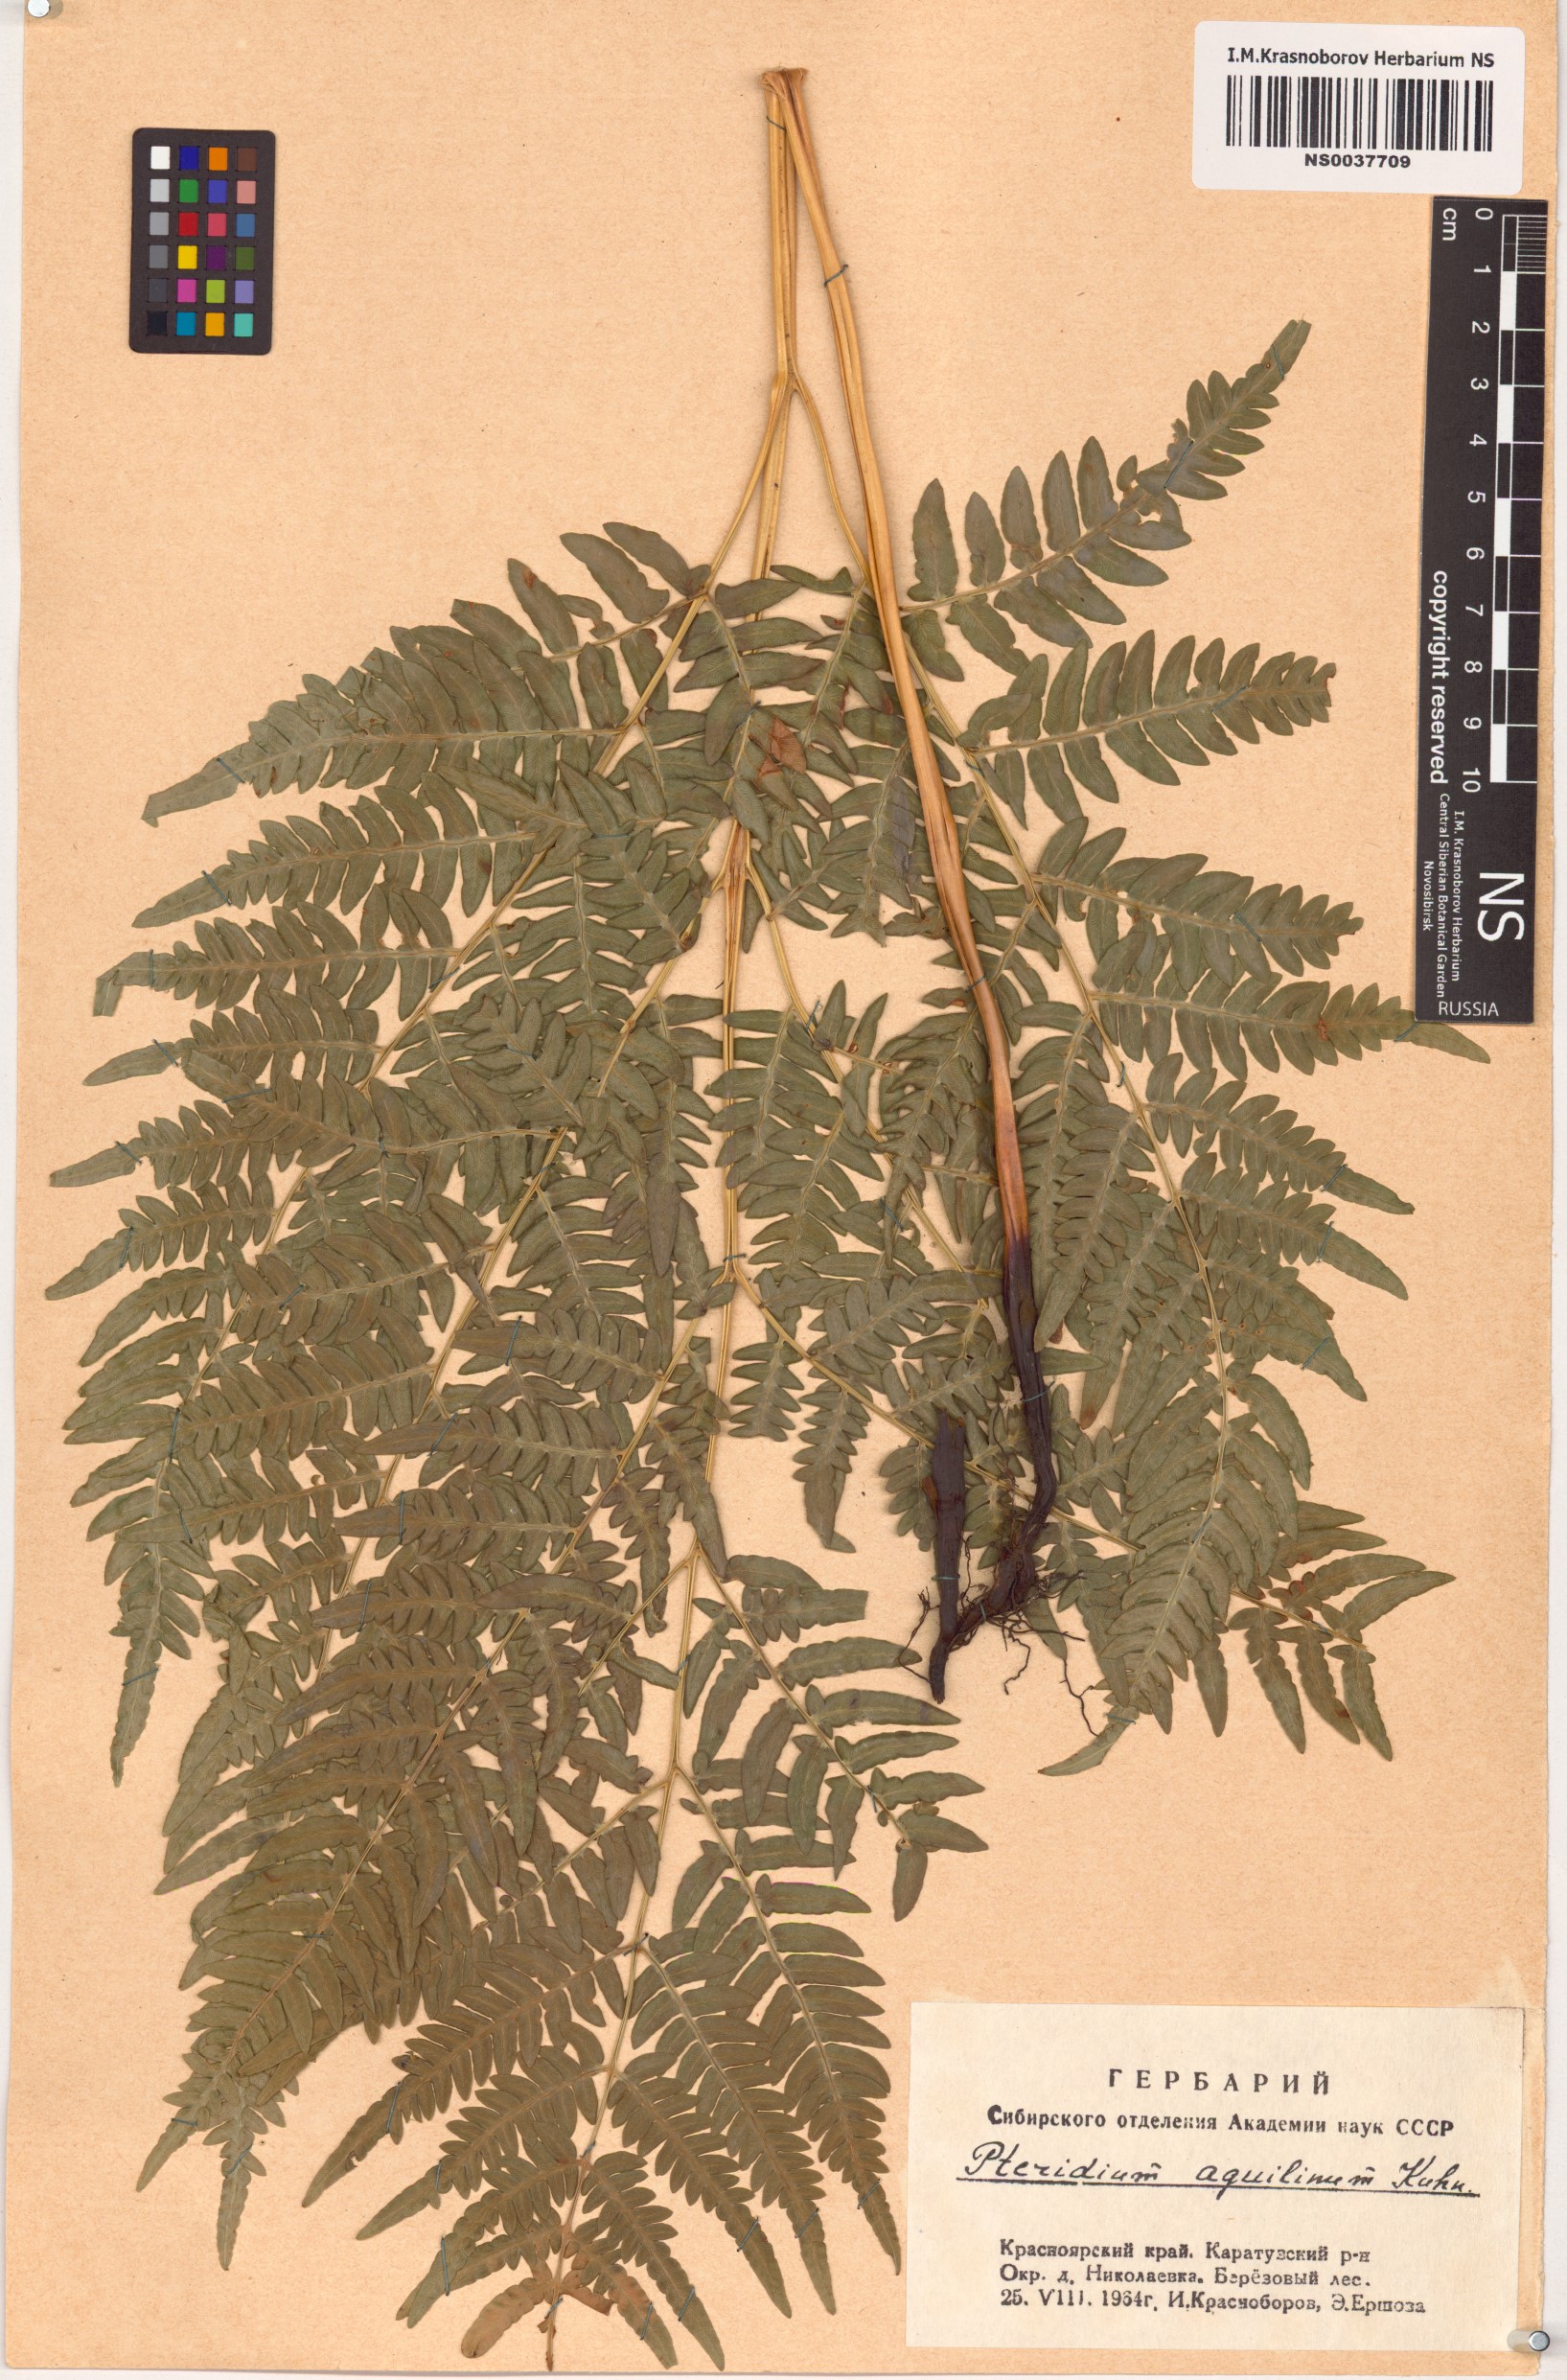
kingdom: Plantae
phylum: Tracheophyta
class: Polypodiopsida
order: Polypodiales
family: Dennstaedtiaceae
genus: Pteridium
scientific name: Pteridium aquilinum
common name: Bracken
